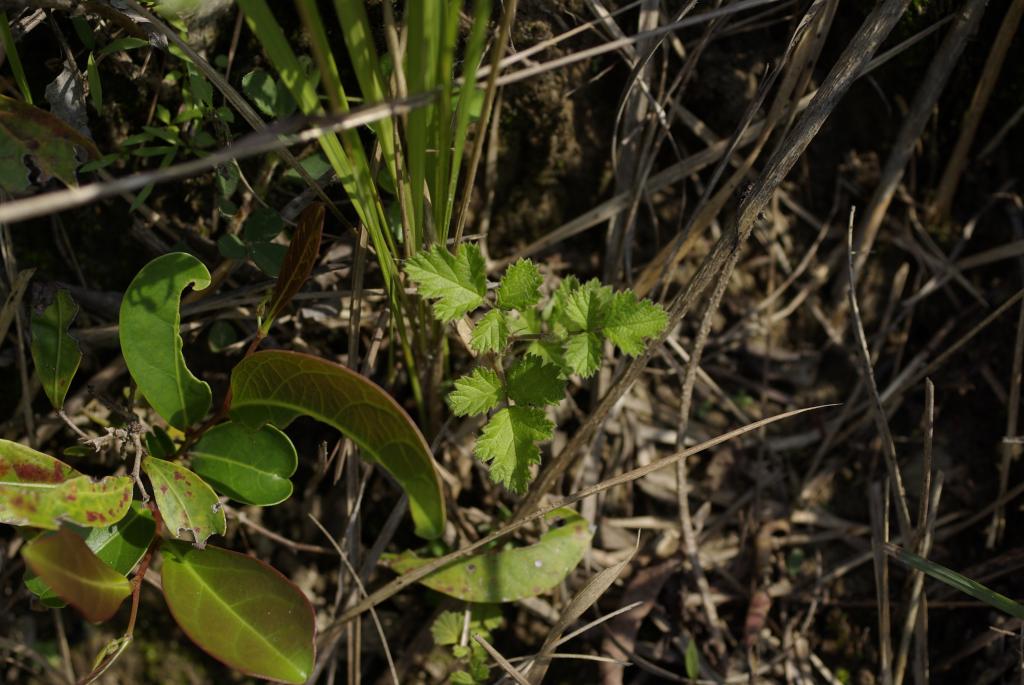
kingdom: Plantae
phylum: Tracheophyta
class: Magnoliopsida
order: Rosales
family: Rosaceae
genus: Rubus
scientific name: Rubus parvifolius
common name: Threeleaf blackberry
